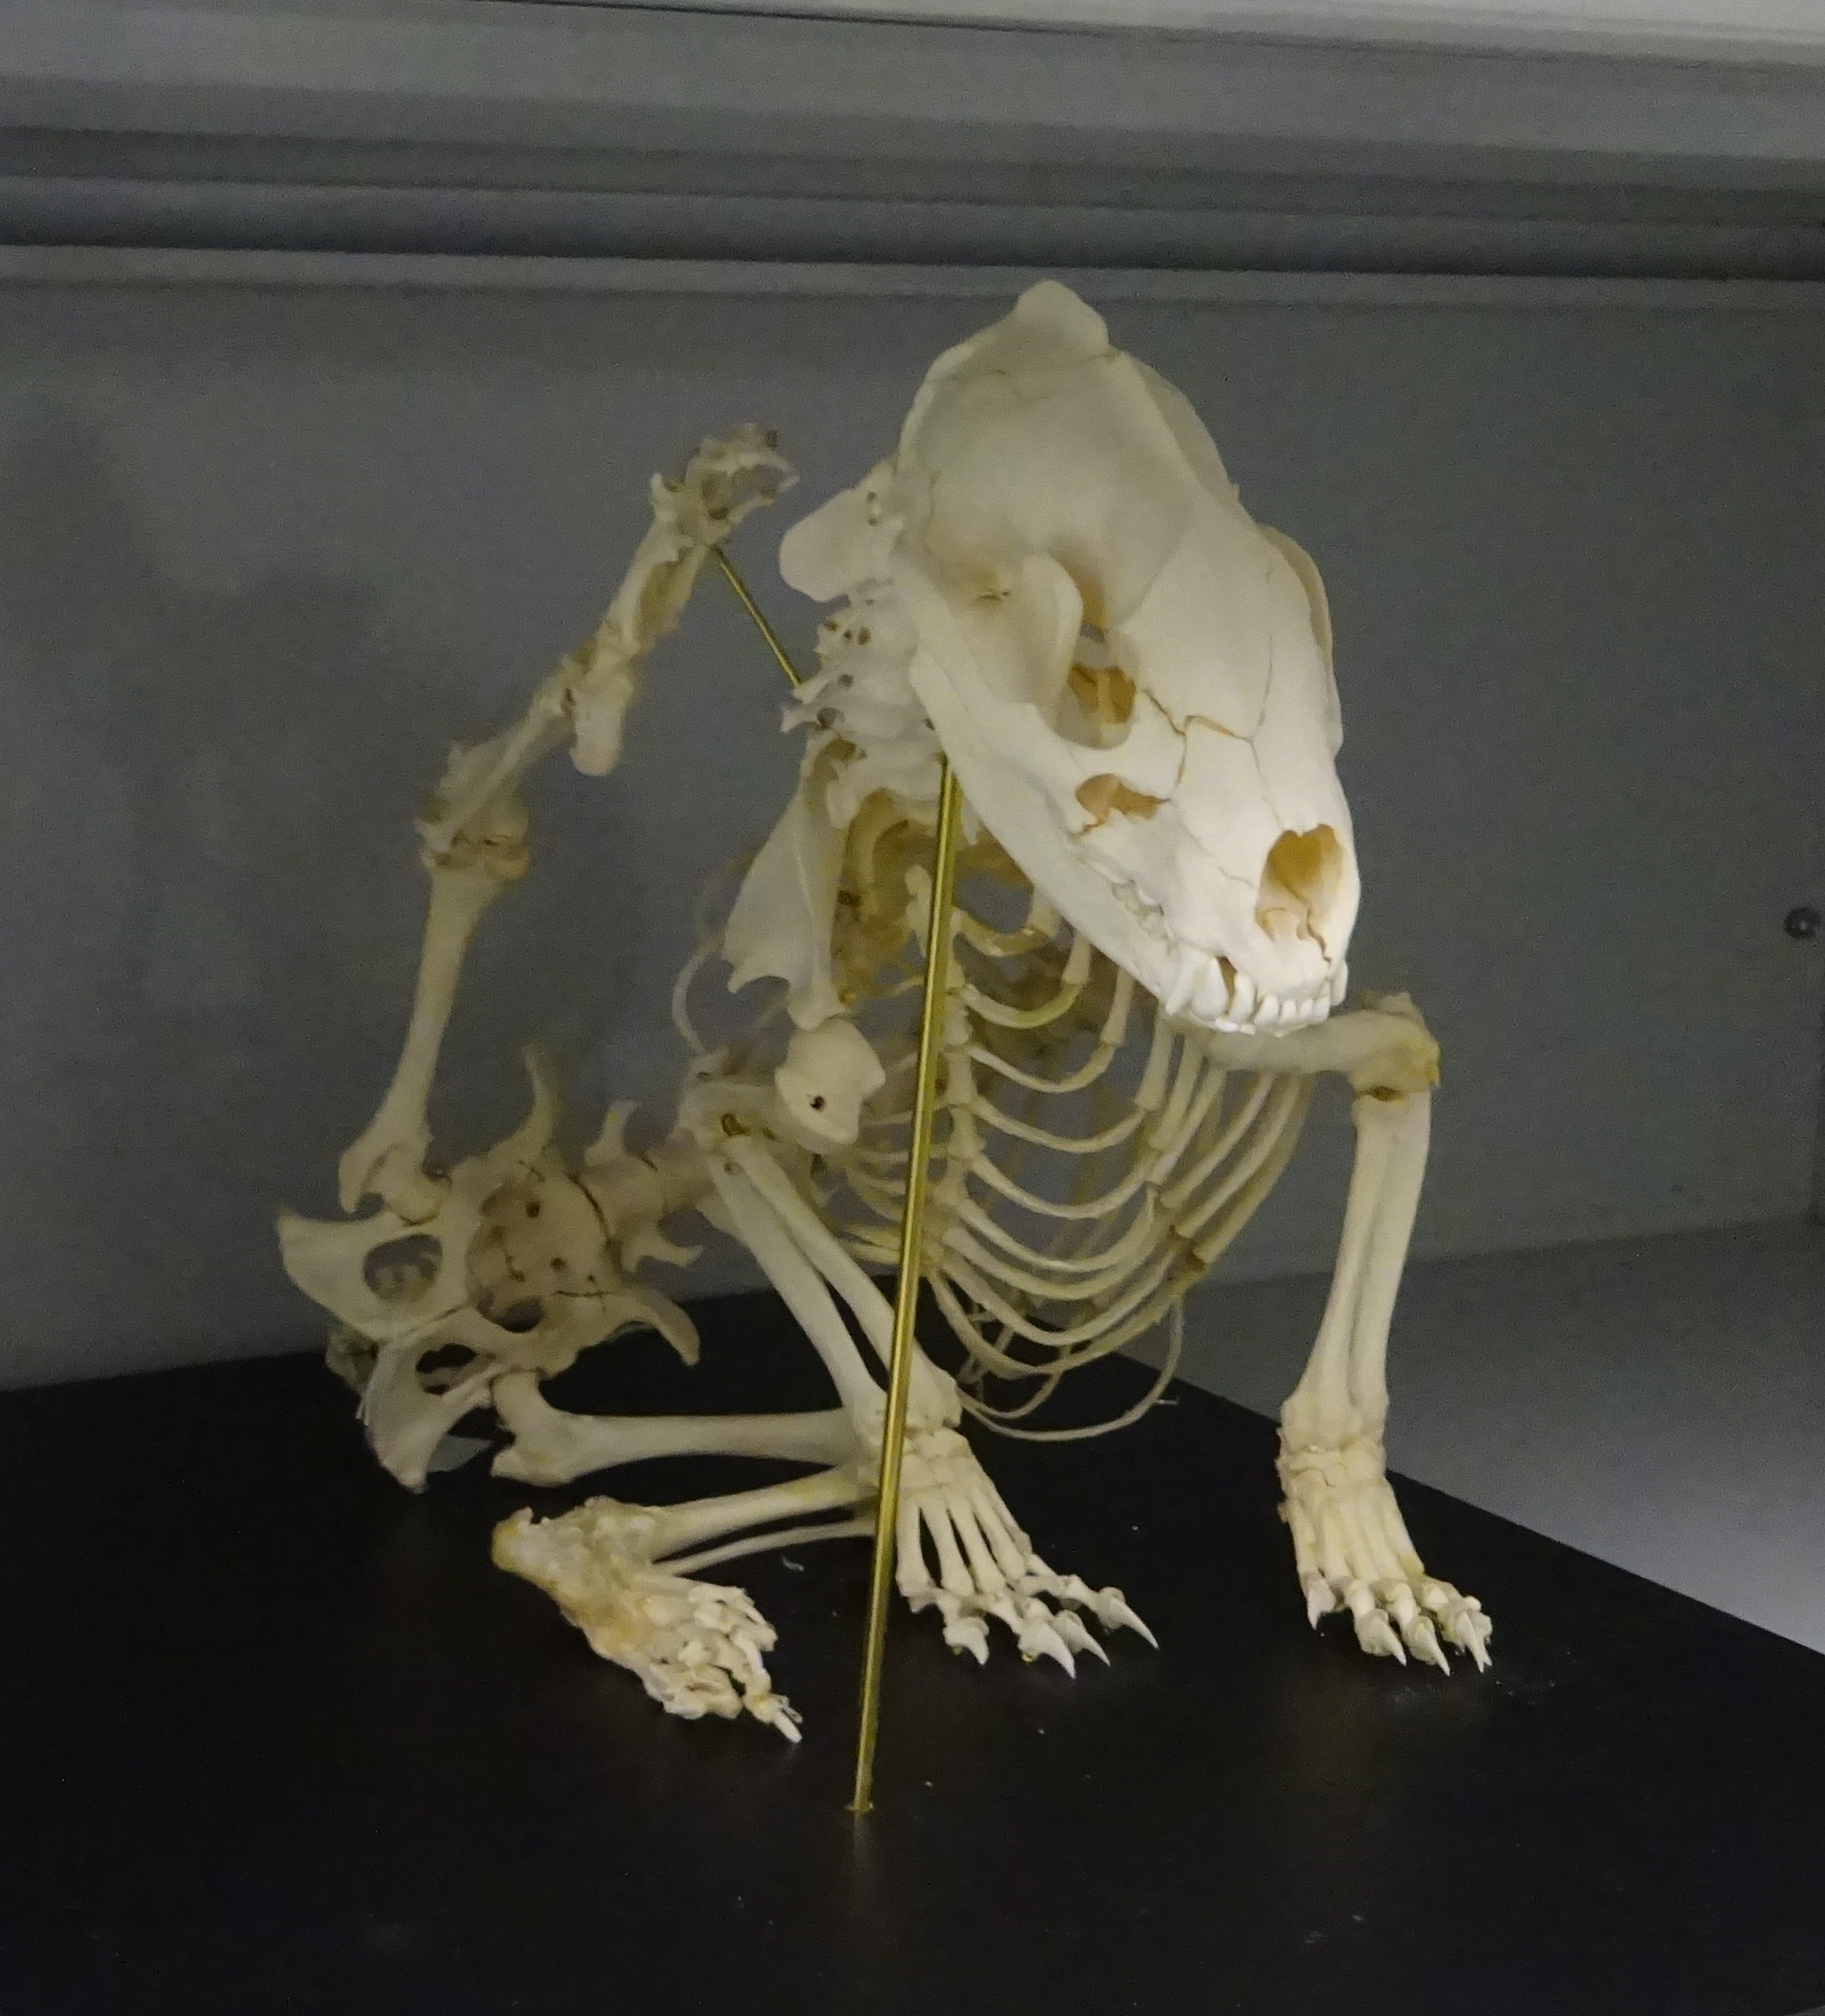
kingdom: Animalia
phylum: Chordata
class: Mammalia
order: Carnivora
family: Mustelidae
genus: Meles
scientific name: Meles meles
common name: Eurasian badger
